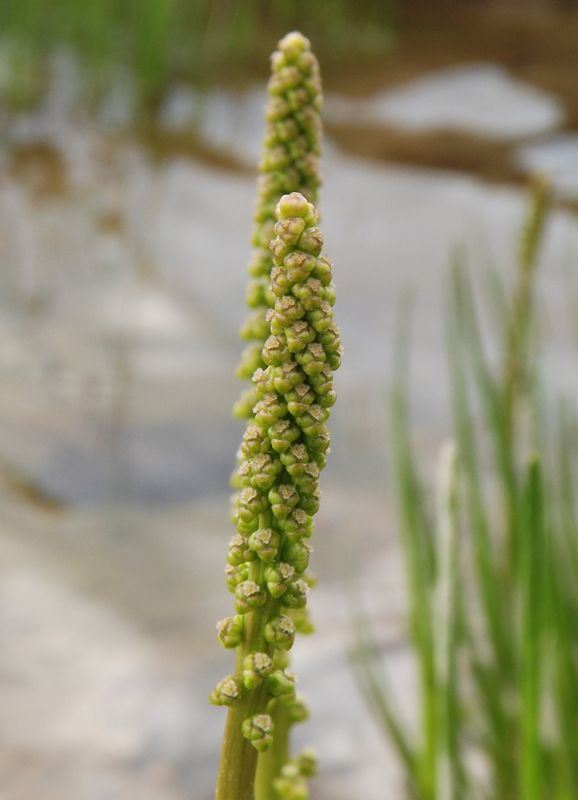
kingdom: Plantae
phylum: Tracheophyta
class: Liliopsida
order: Alismatales
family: Juncaginaceae
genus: Triglochin
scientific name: Triglochin maritima
